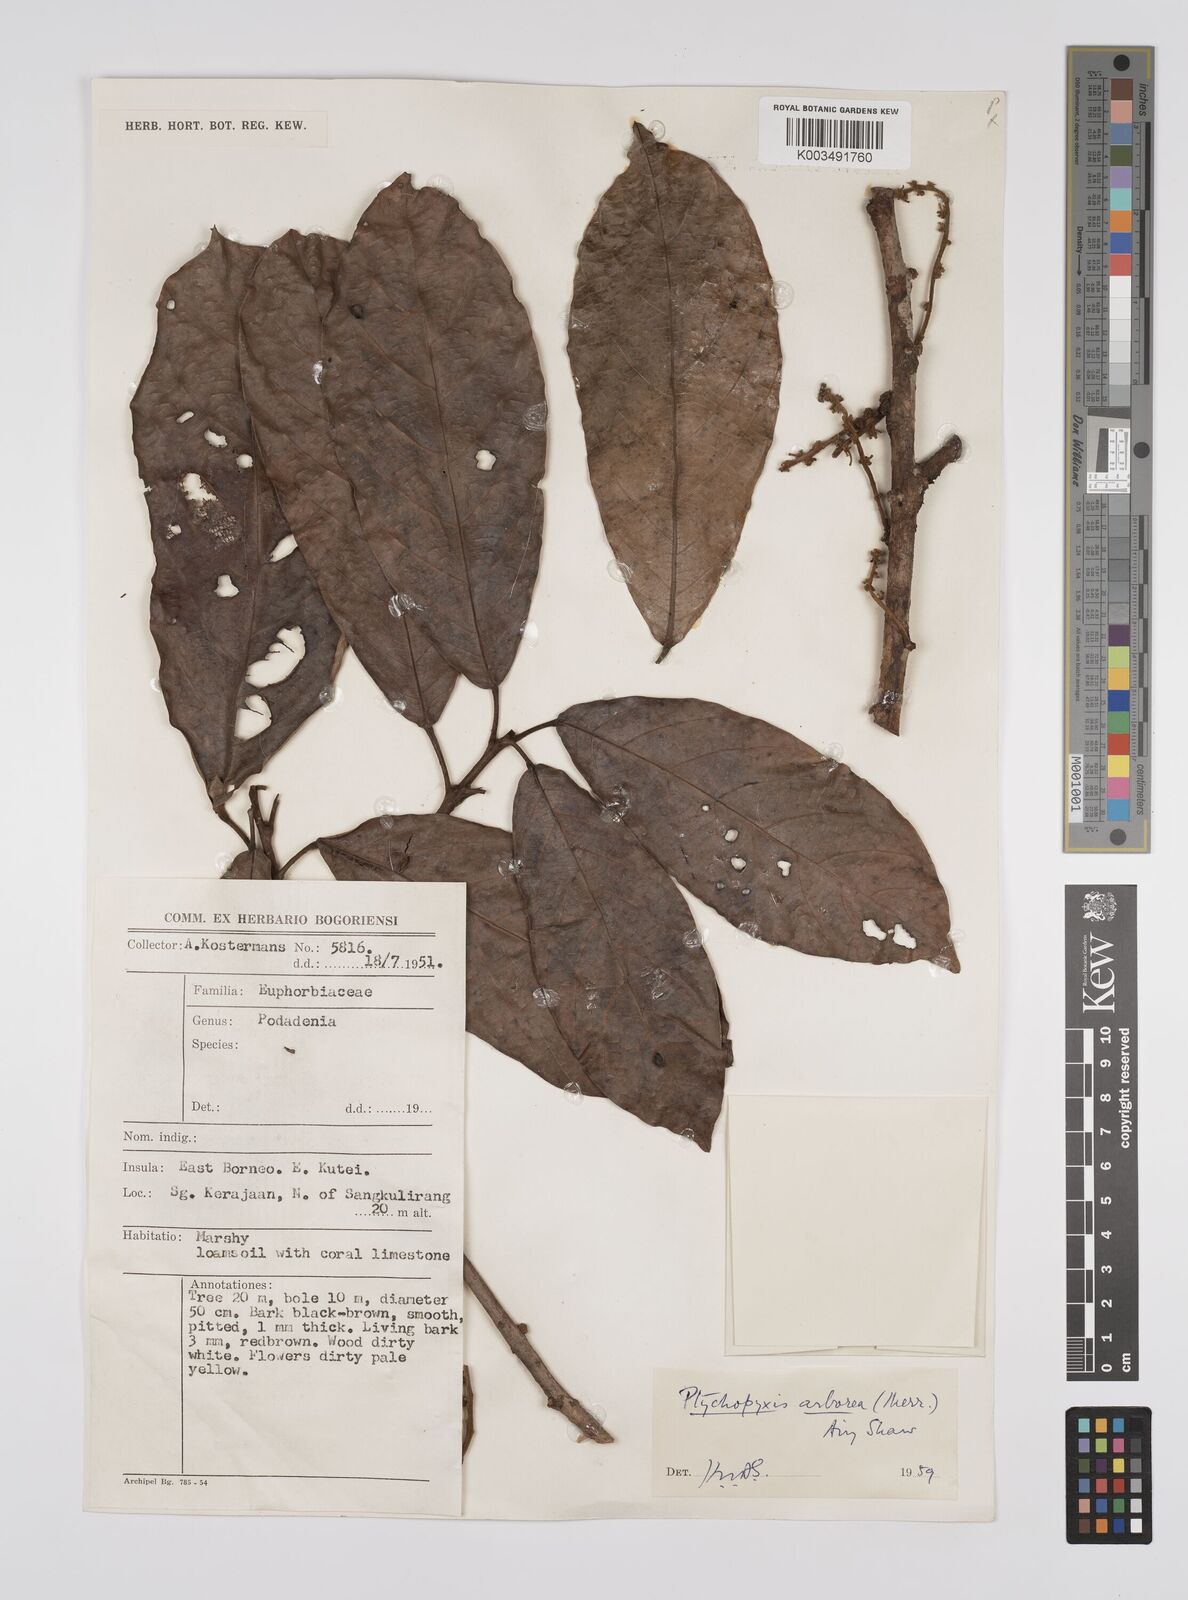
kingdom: Plantae
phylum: Tracheophyta
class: Magnoliopsida
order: Malpighiales
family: Euphorbiaceae
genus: Ptychopyxis
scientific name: Ptychopyxis arborea
